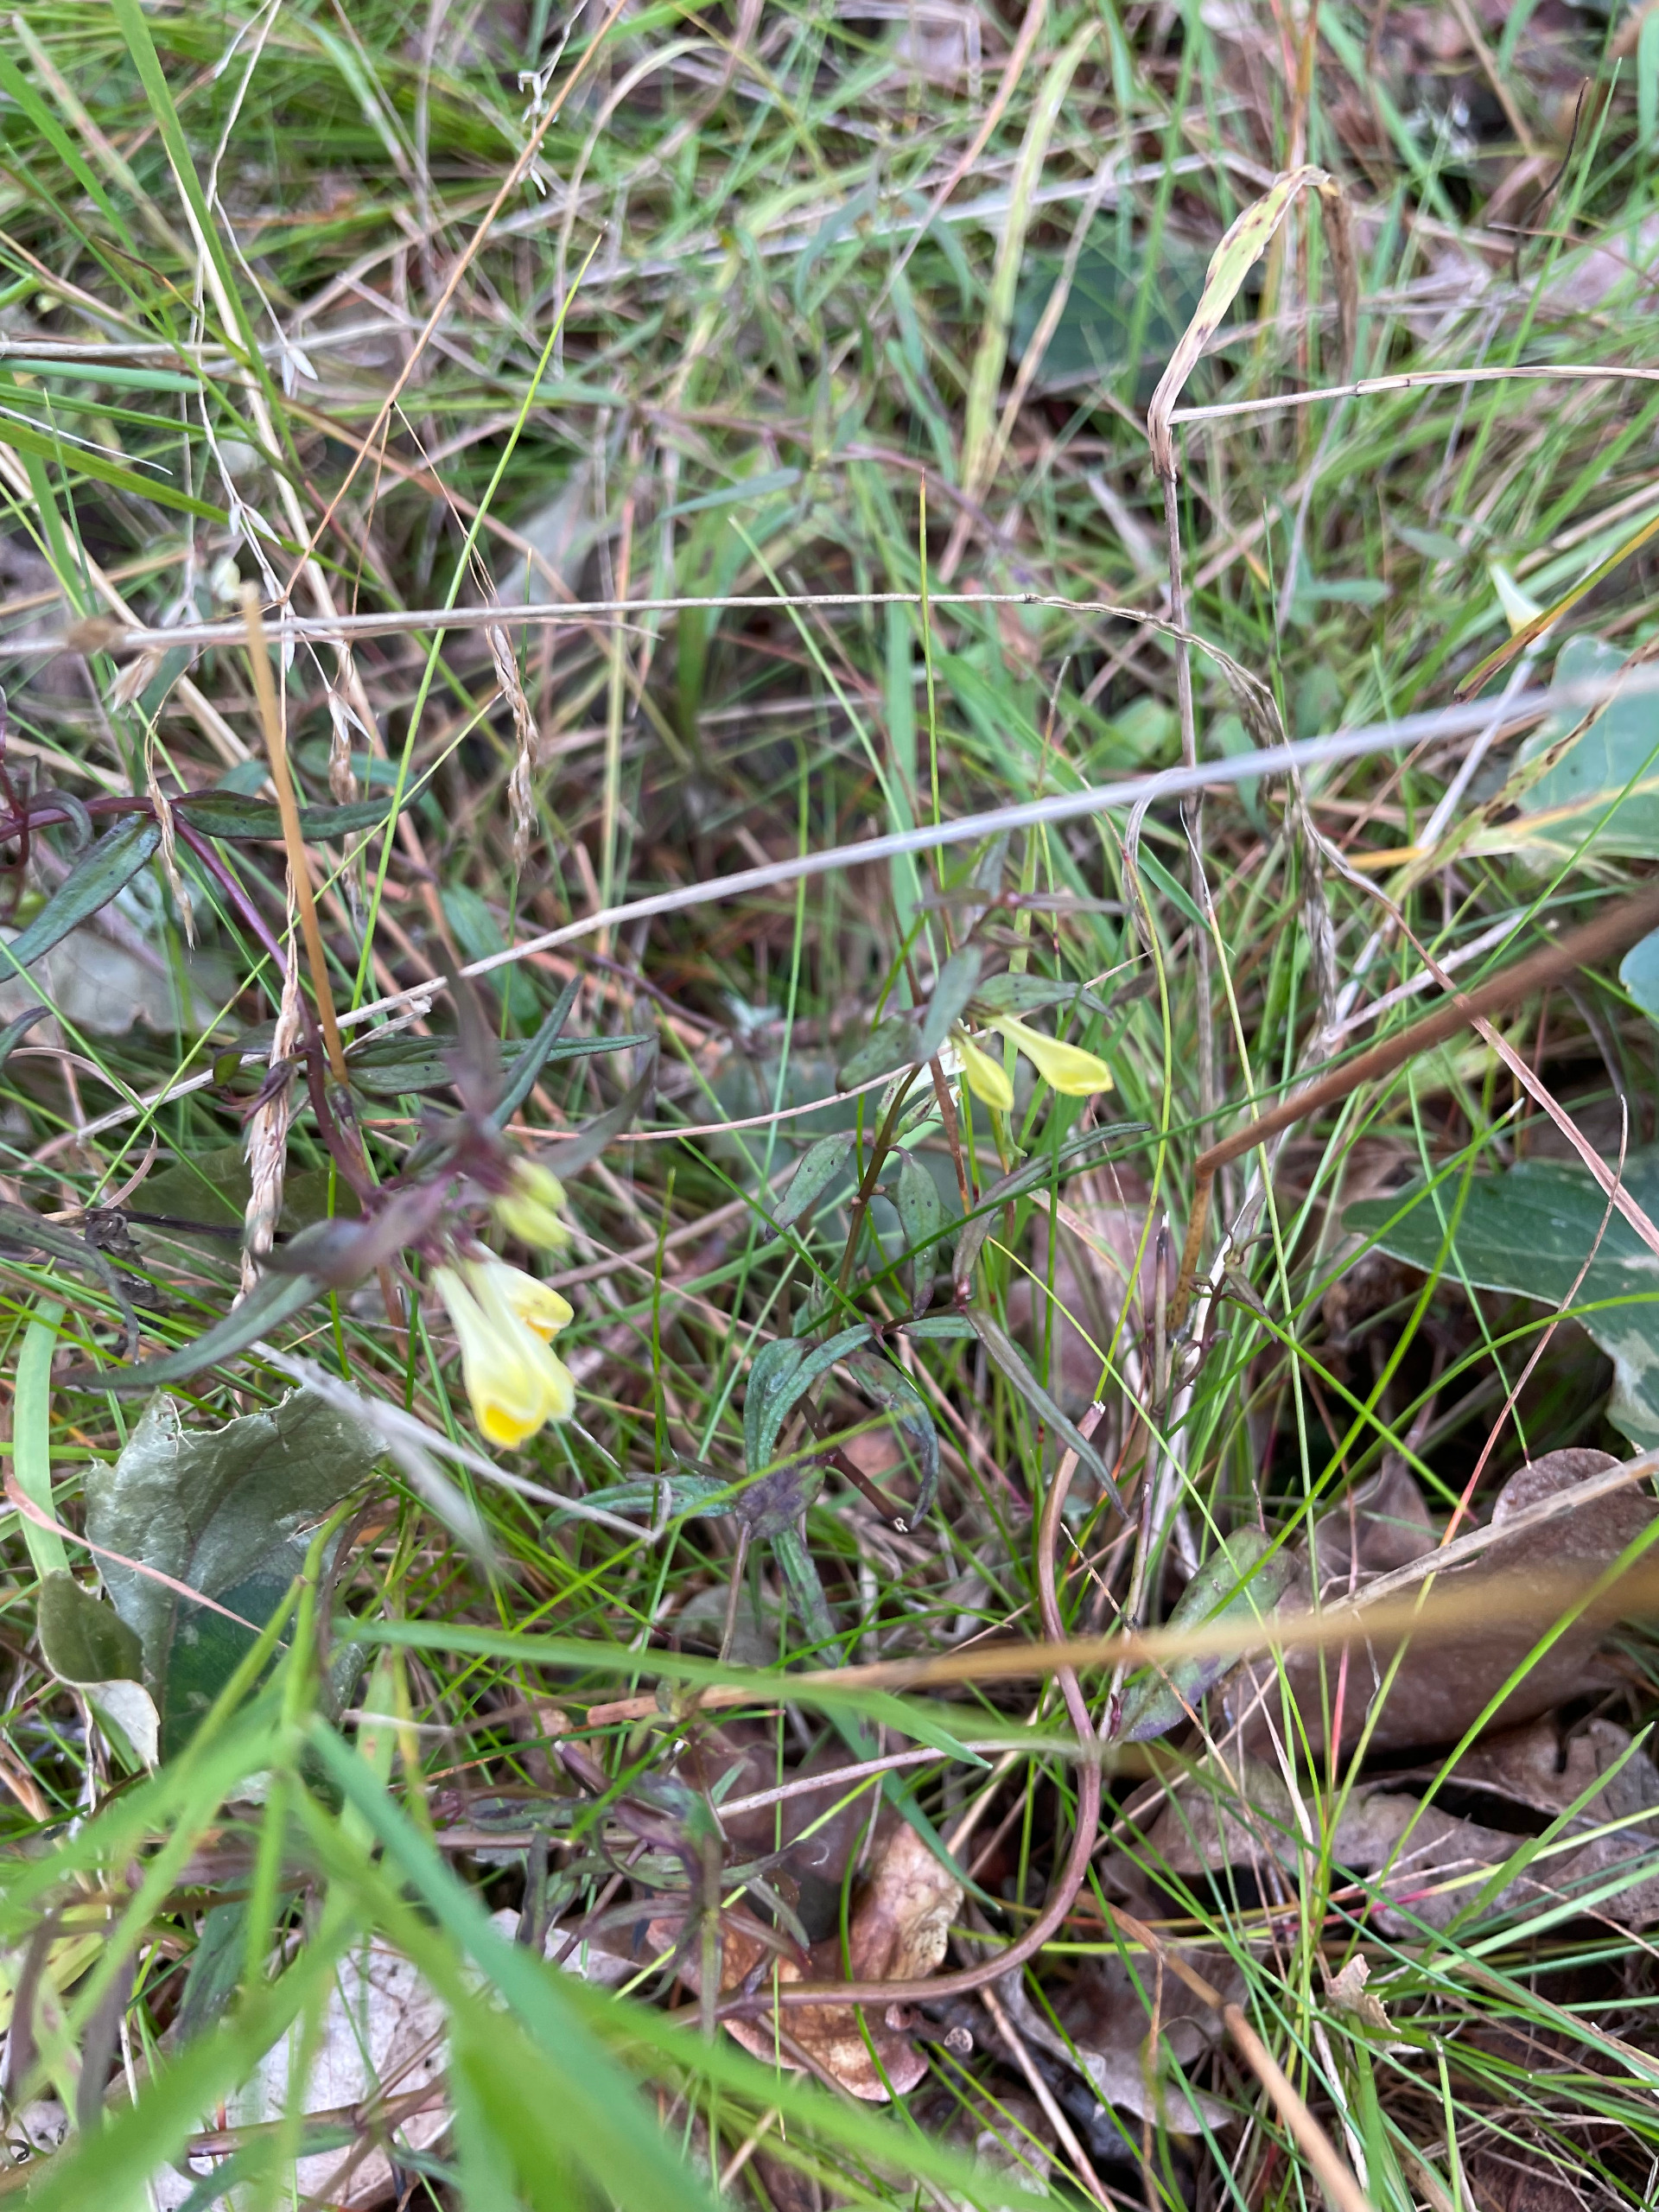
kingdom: Plantae
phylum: Tracheophyta
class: Magnoliopsida
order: Lamiales
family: Orobanchaceae
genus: Melampyrum
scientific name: Melampyrum pratense
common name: Almindelig kohvede
